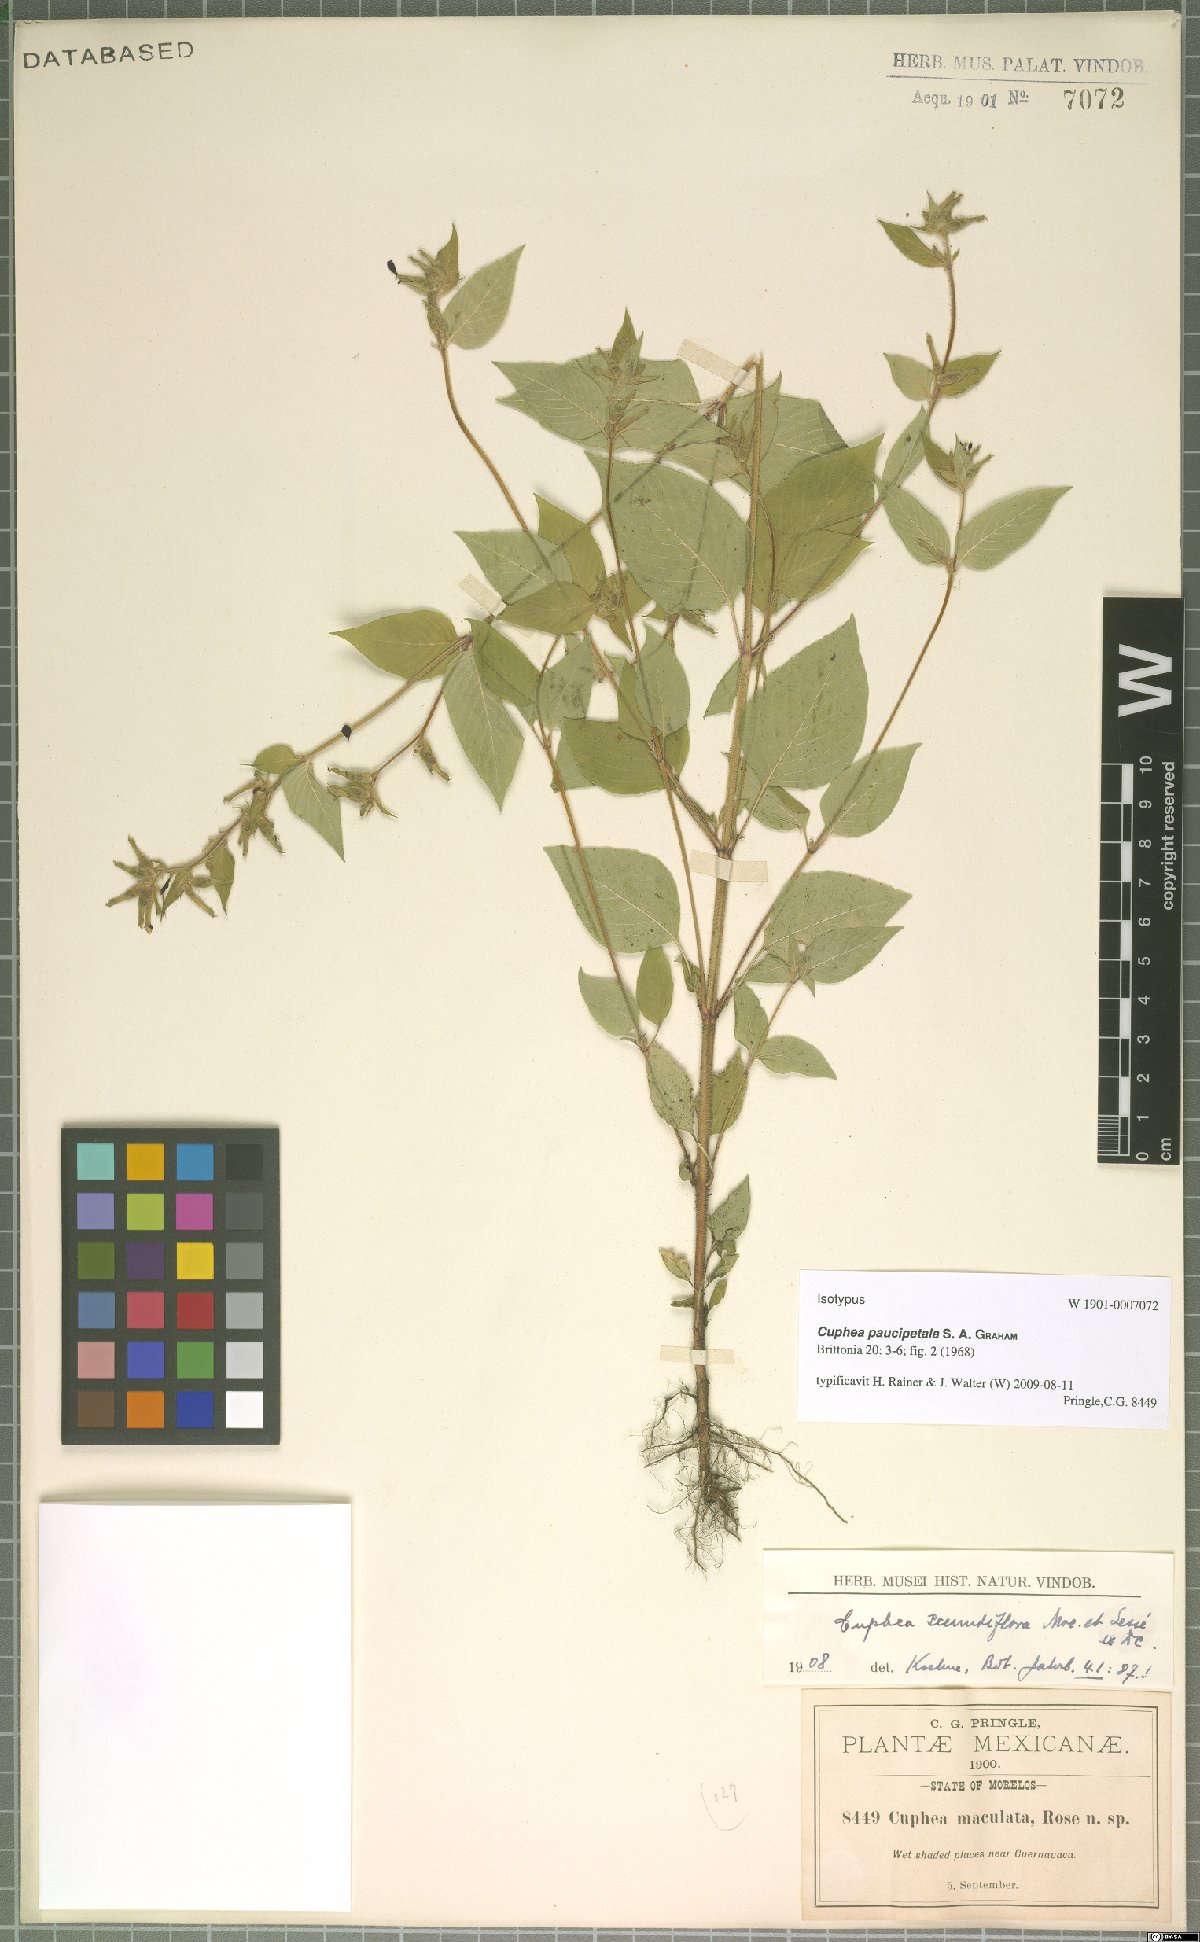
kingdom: Plantae
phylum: Tracheophyta
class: Magnoliopsida
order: Myrtales
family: Lythraceae
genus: Cuphea
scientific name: Cuphea paucipetala
